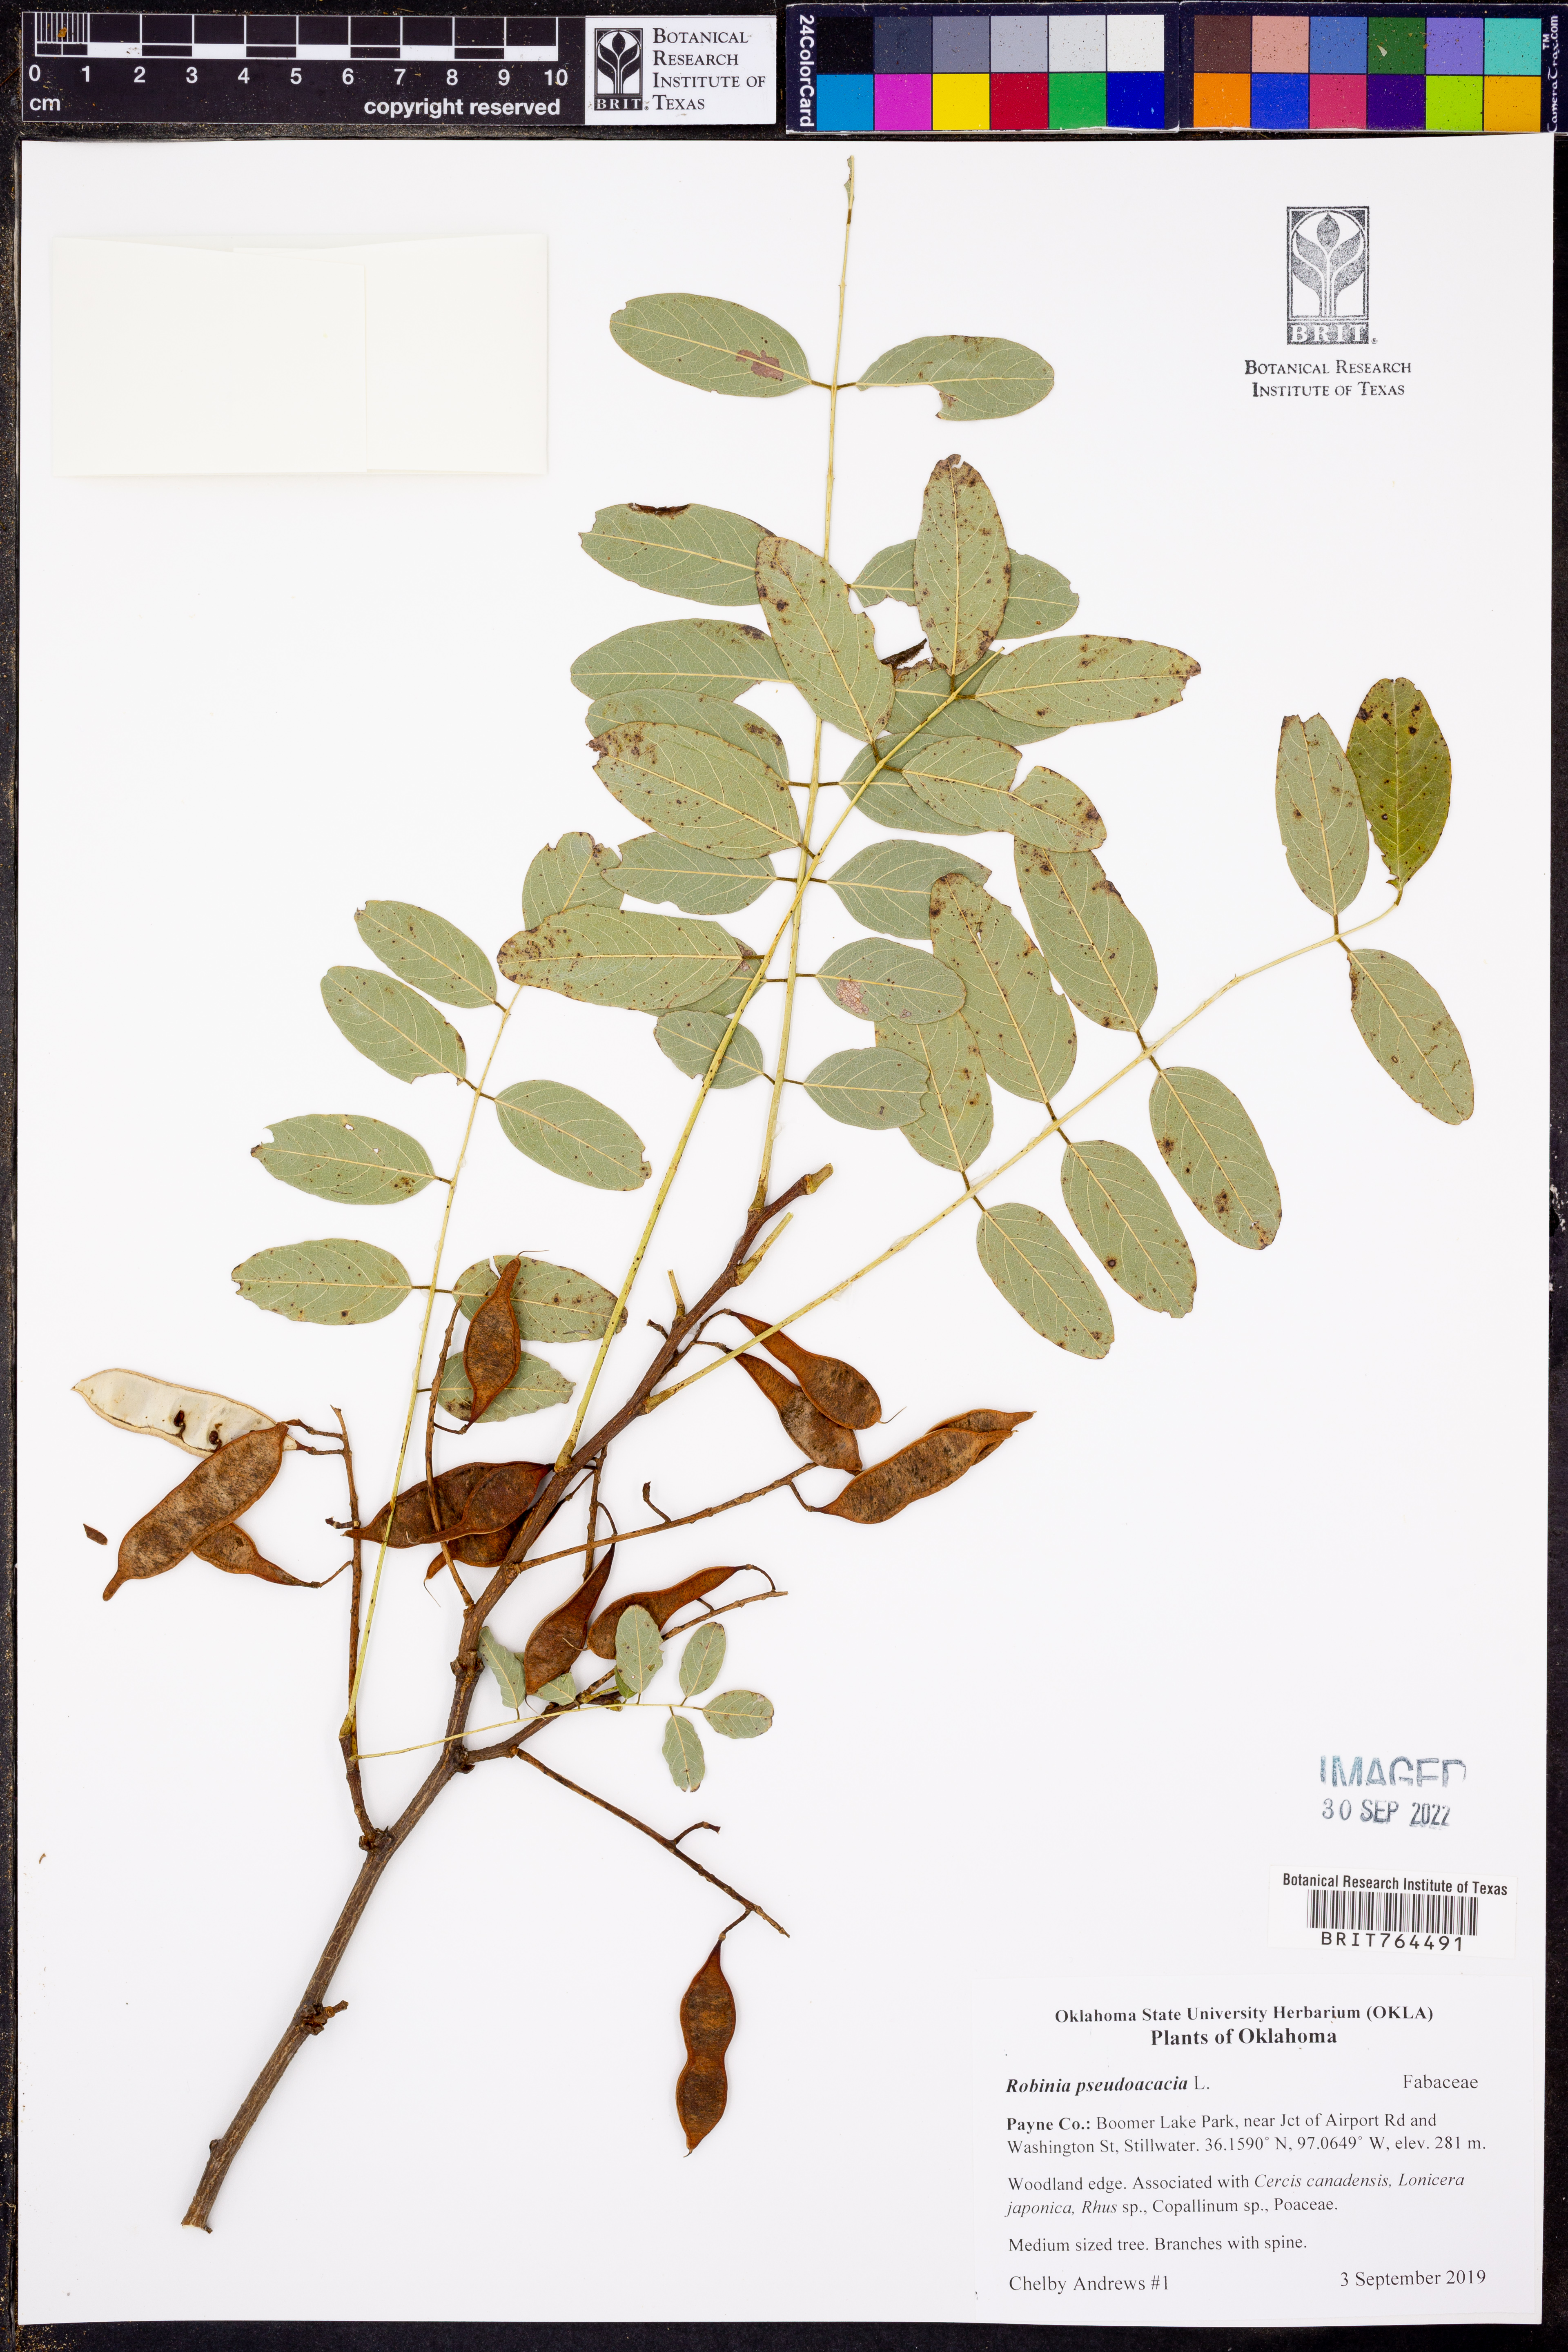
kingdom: Plantae
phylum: Tracheophyta
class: Magnoliopsida
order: Fabales
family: Fabaceae
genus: Robinia
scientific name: Robinia pseudoacacia
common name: Black locust
